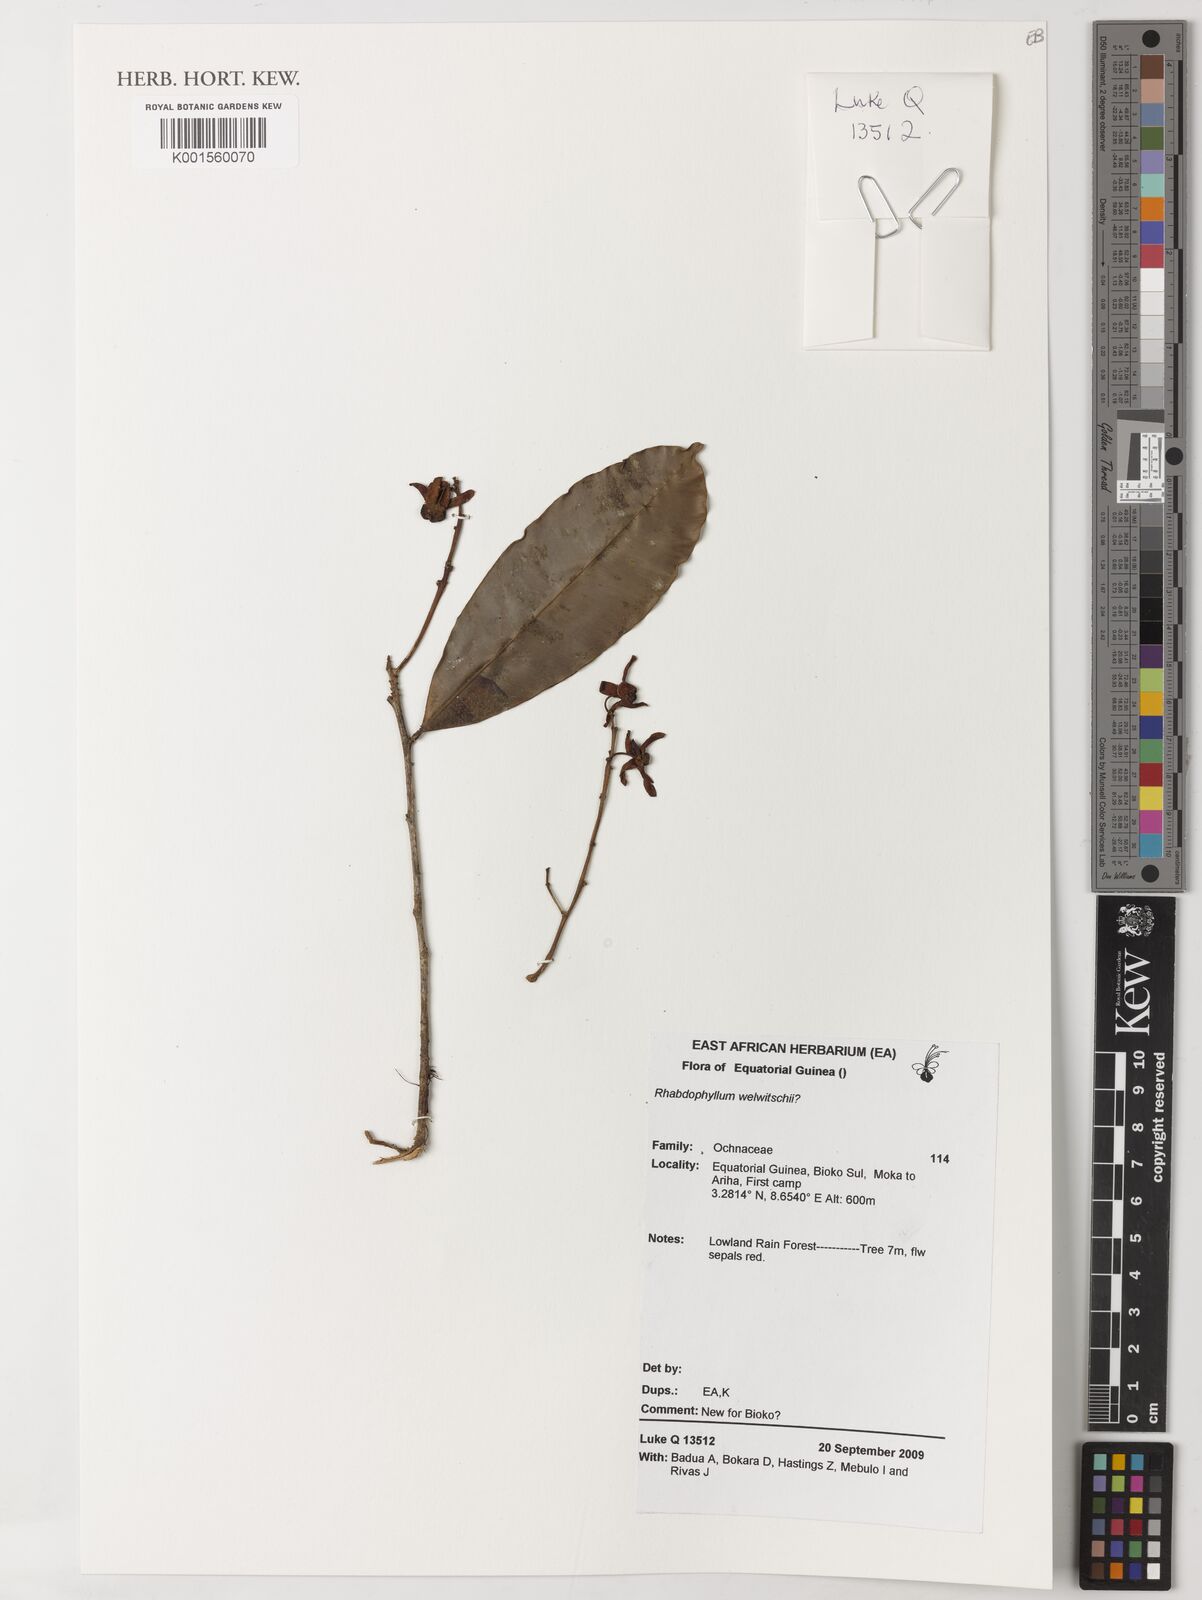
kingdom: Plantae
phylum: Tracheophyta
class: Magnoliopsida
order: Malpighiales
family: Ochnaceae
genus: Rhabdophyllum
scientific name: Rhabdophyllum welwitschii
